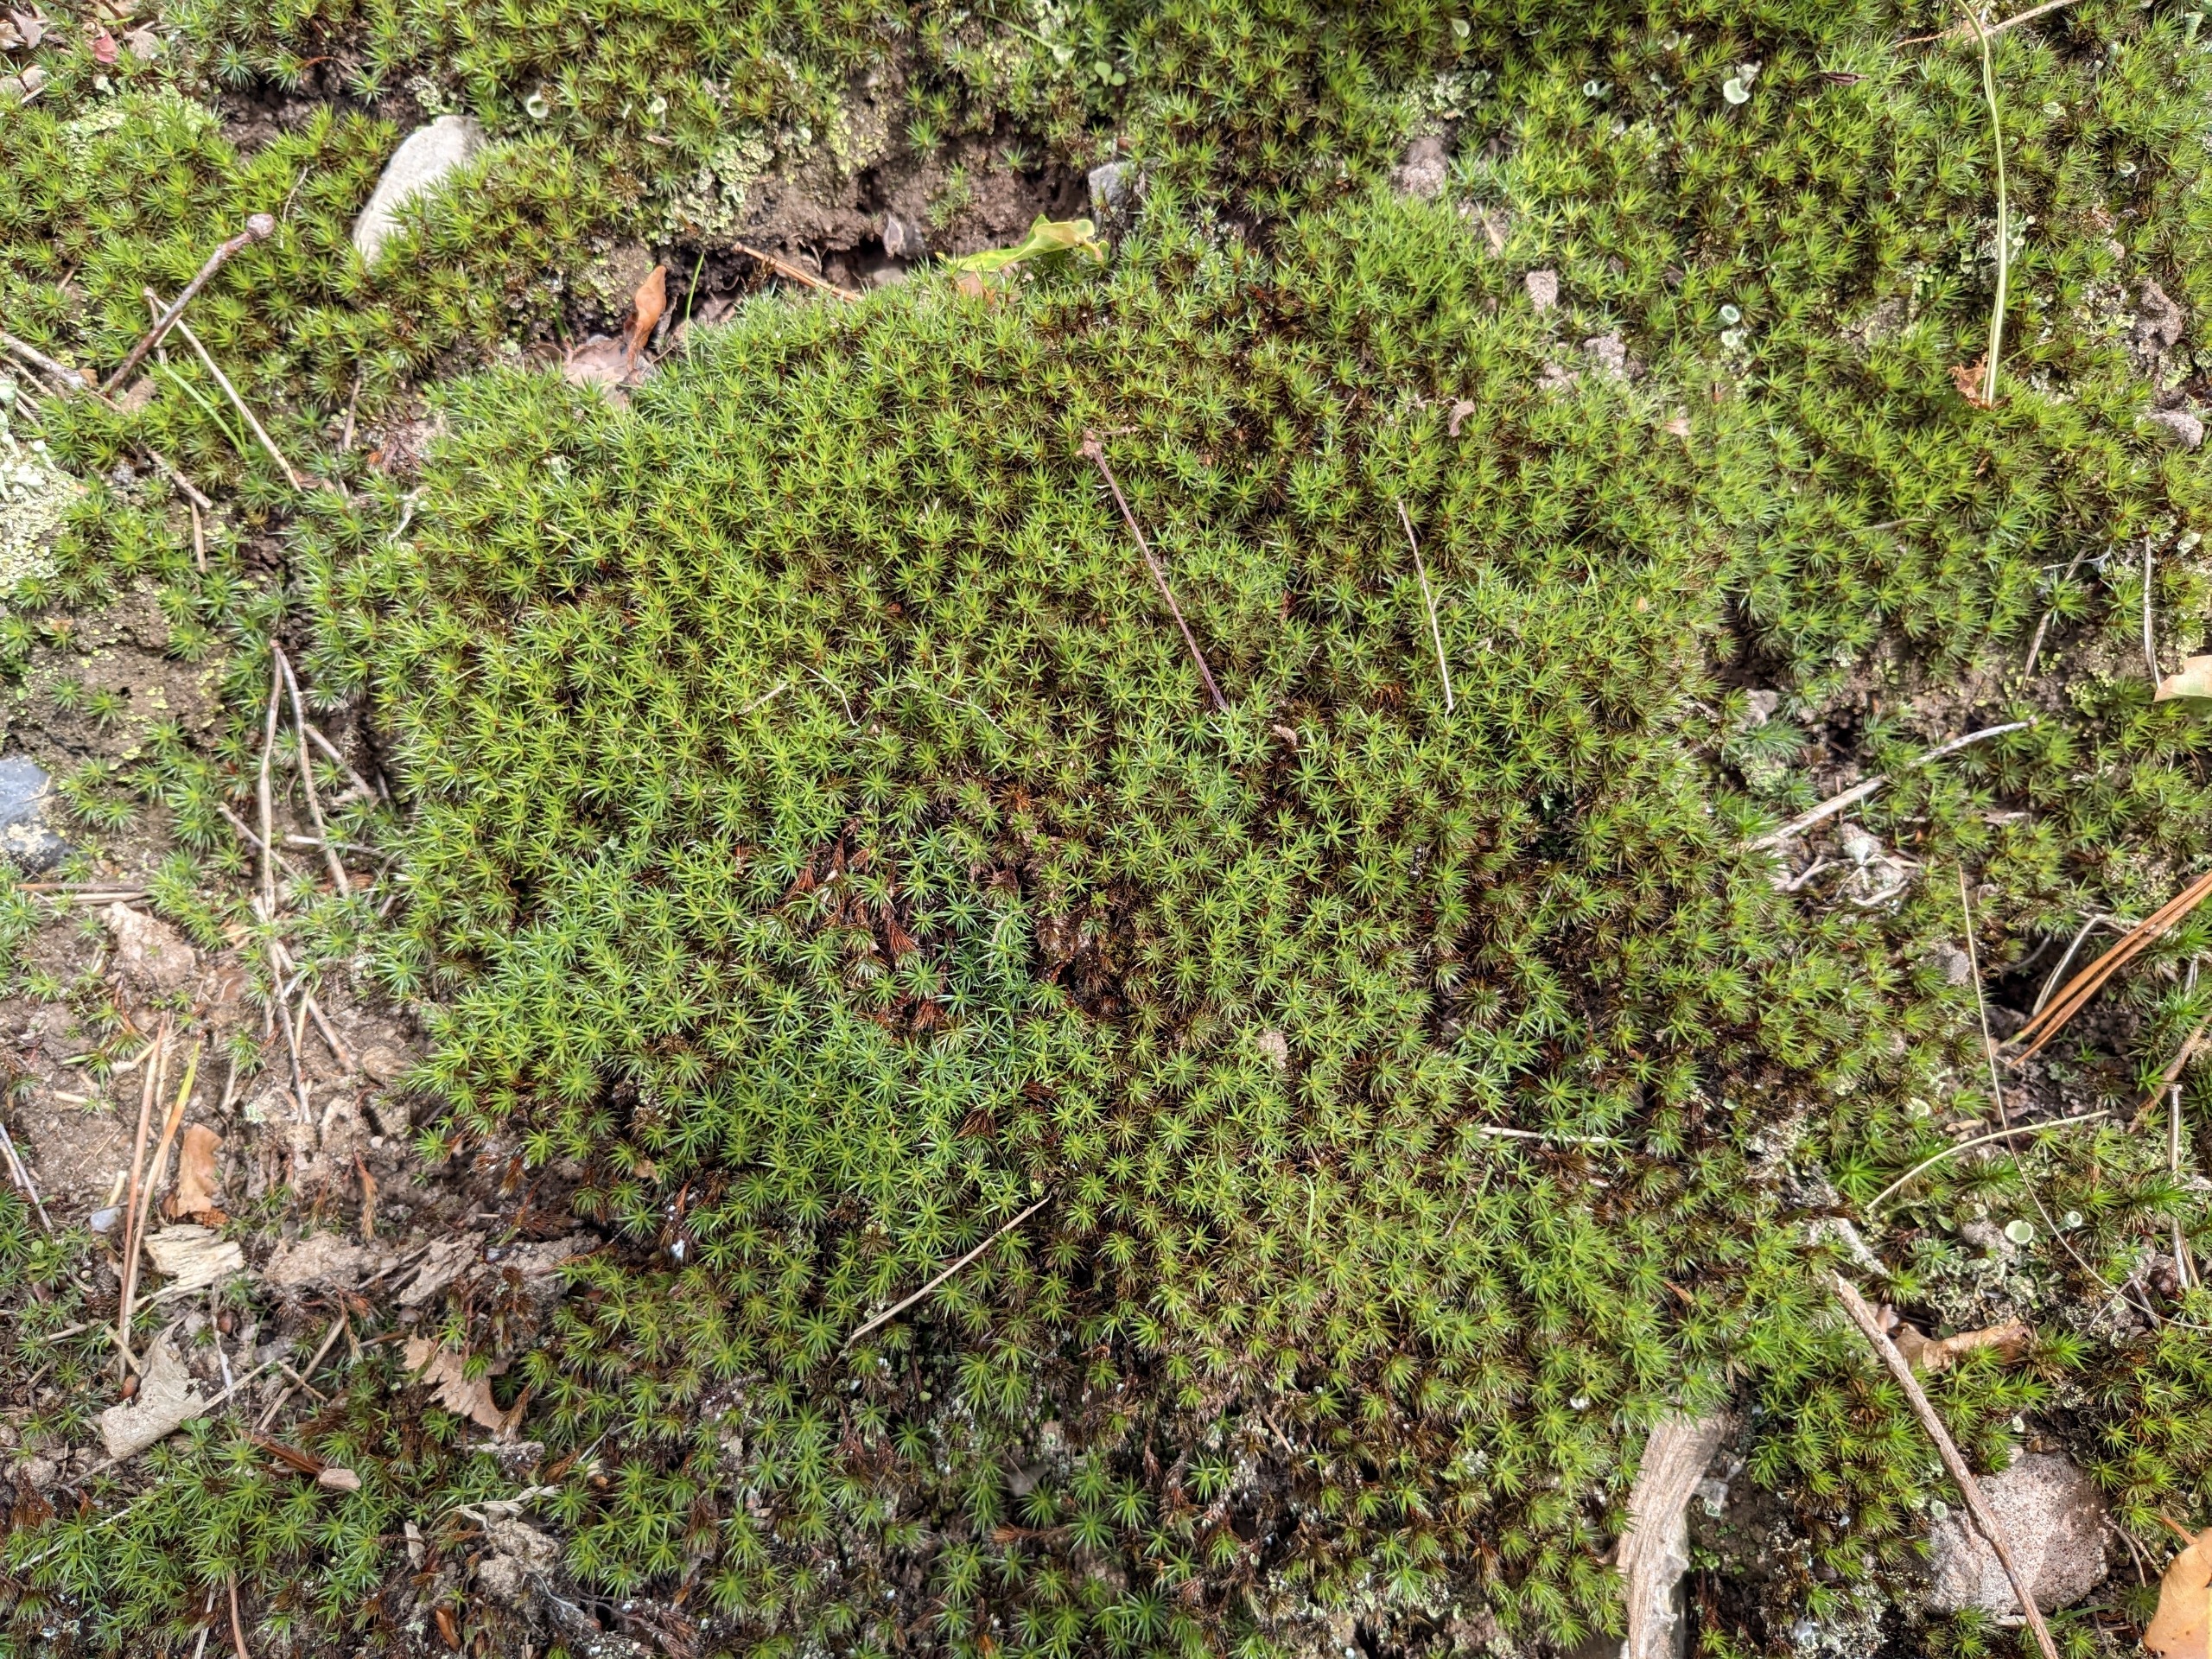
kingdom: Plantae
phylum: Bryophyta
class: Polytrichopsida
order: Polytrichales
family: Polytrichaceae
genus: Polytrichum
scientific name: Polytrichum piliferum
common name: Hårspidset jomfruhår
